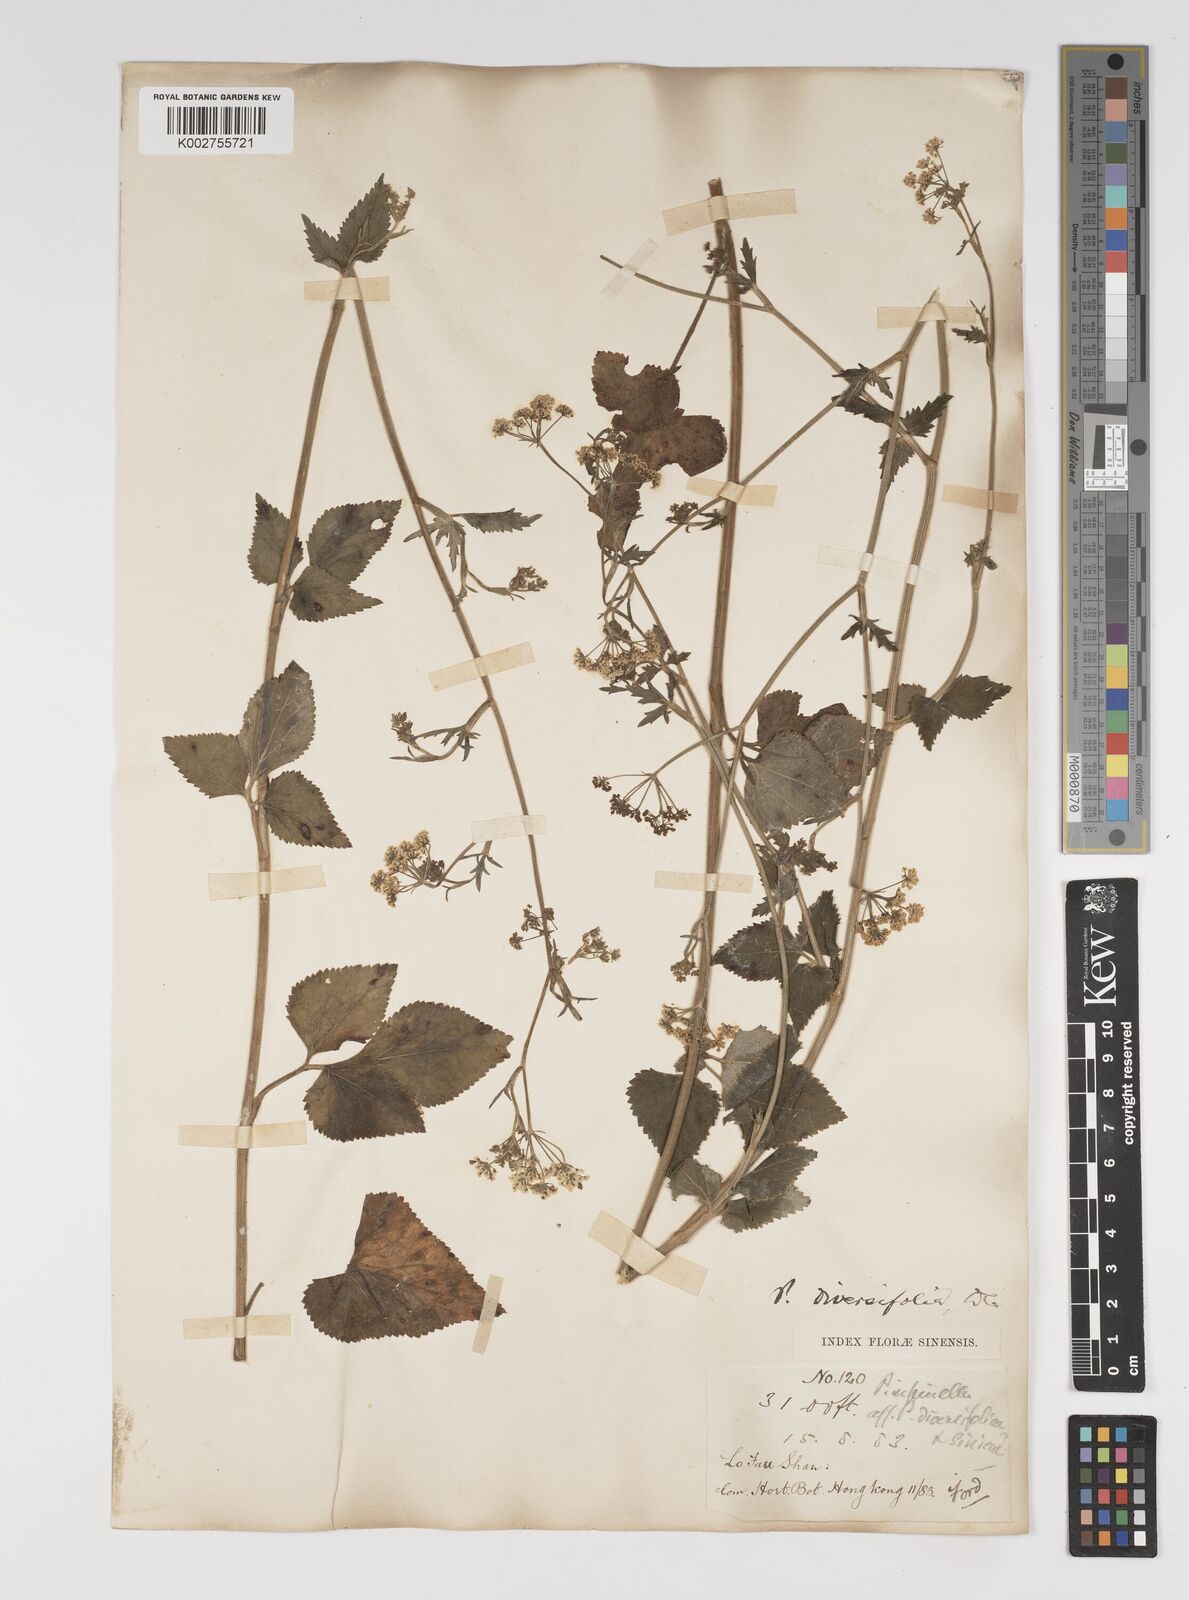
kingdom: Plantae
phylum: Tracheophyta
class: Magnoliopsida
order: Apiales
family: Apiaceae
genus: Pimpinella
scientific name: Pimpinella diversifolia
